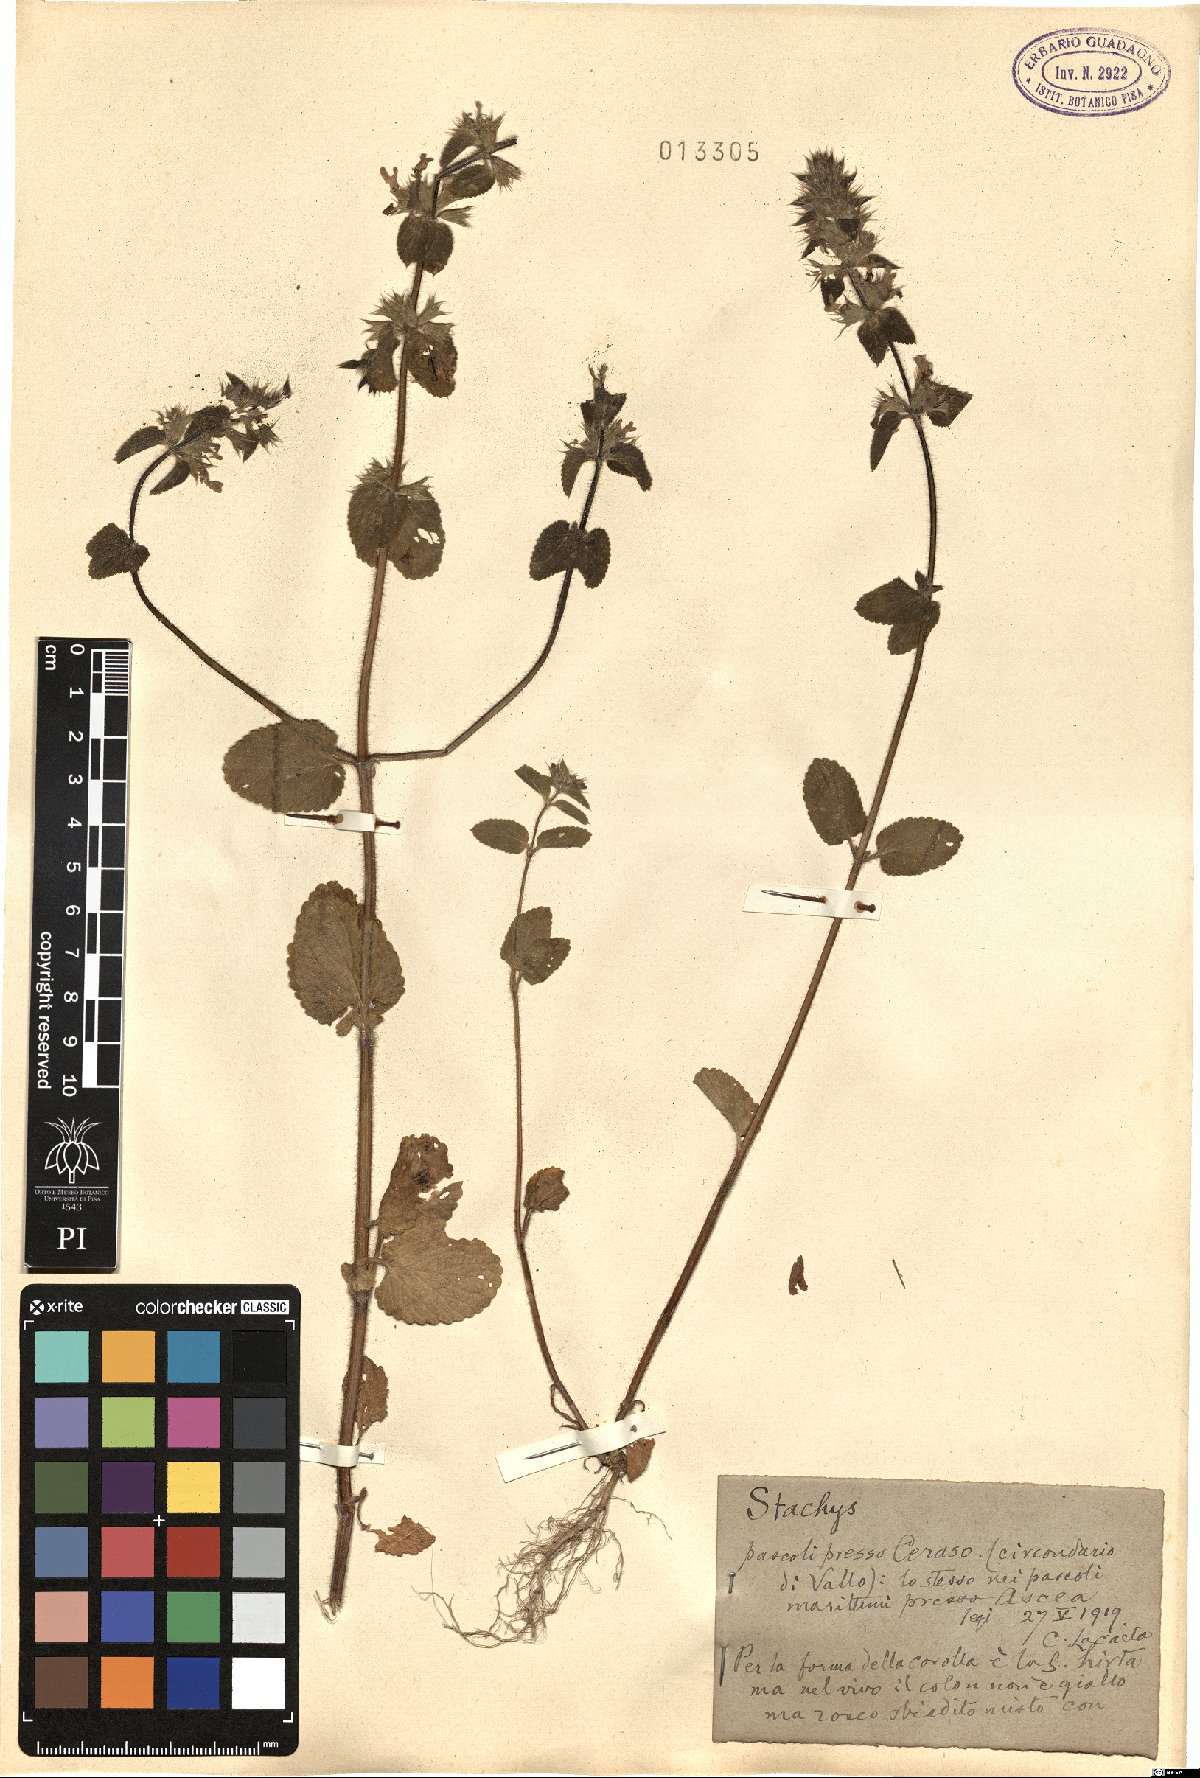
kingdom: Plantae
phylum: Tracheophyta
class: Magnoliopsida
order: Lamiales
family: Lamiaceae
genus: Stachys
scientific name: Stachys
